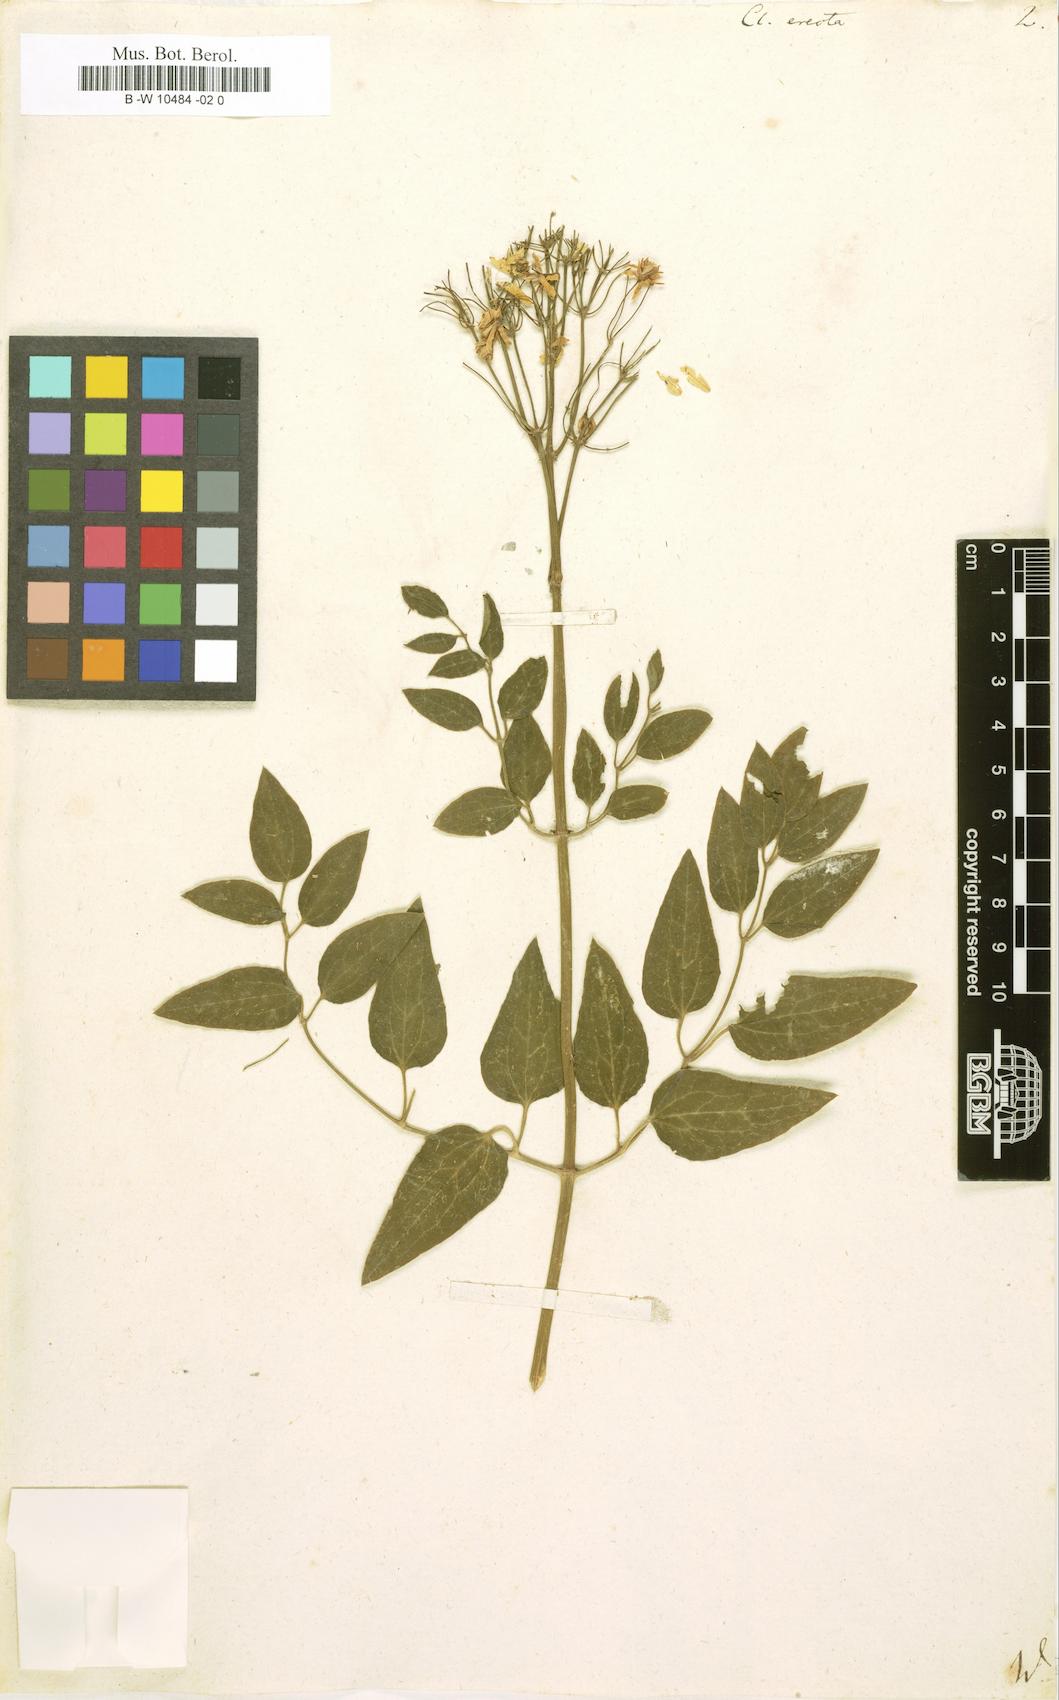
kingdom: Plantae
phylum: Tracheophyta
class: Magnoliopsida
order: Ranunculales
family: Ranunculaceae
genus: Clematis
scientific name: Clematis recta
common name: Ground clematis
